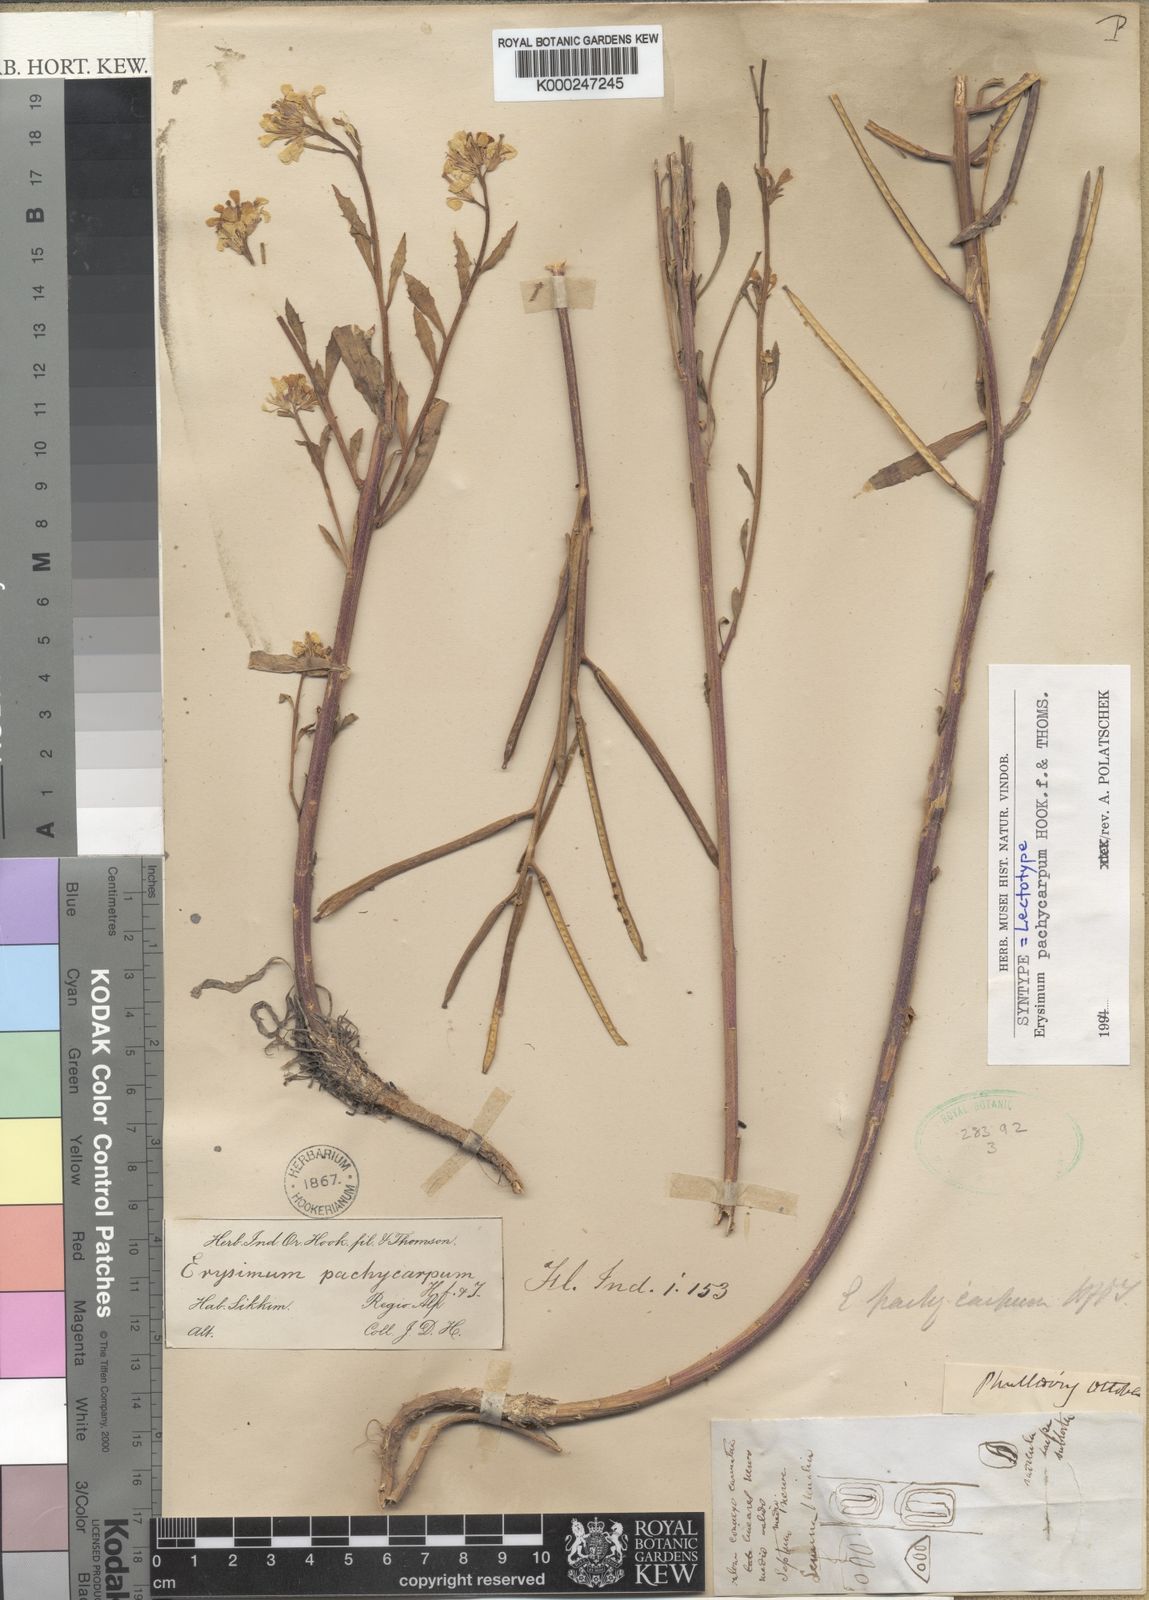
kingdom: Plantae
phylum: Tracheophyta
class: Magnoliopsida
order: Brassicales
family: Brassicaceae
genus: Erysimum
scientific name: Erysimum pachycarpum
